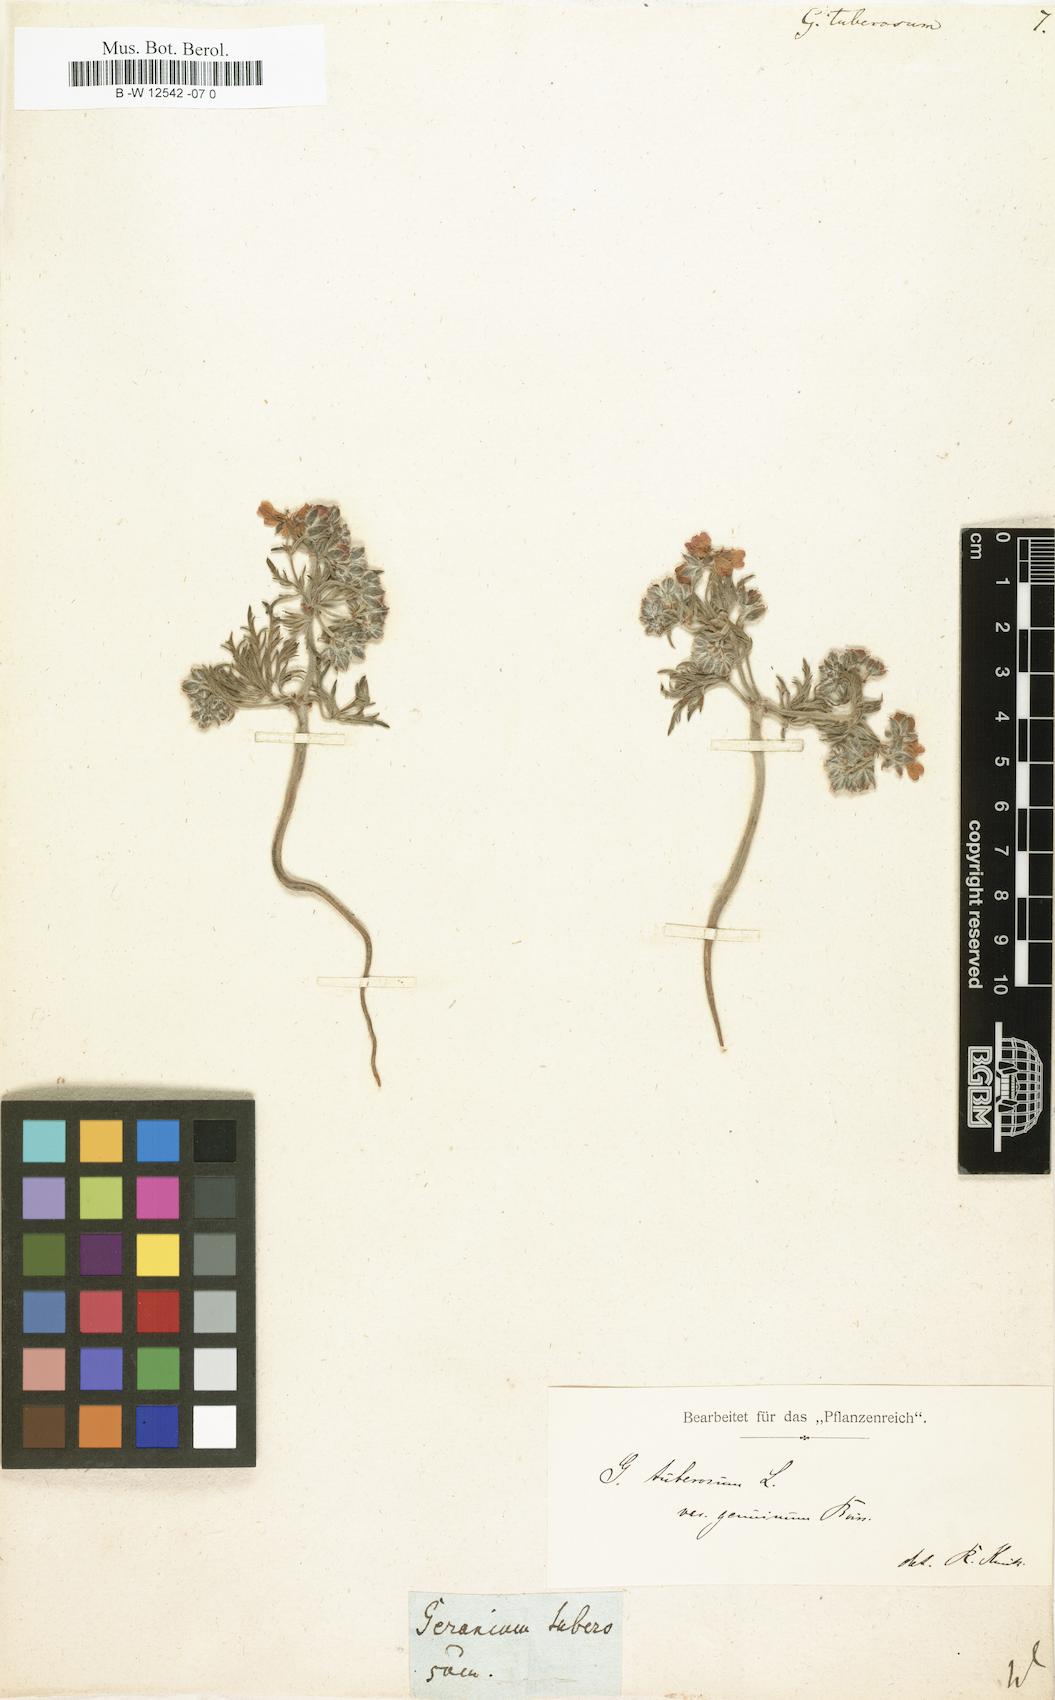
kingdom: Plantae
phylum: Tracheophyta
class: Magnoliopsida
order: Geraniales
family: Geraniaceae
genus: Geranium
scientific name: Geranium tuberosum
